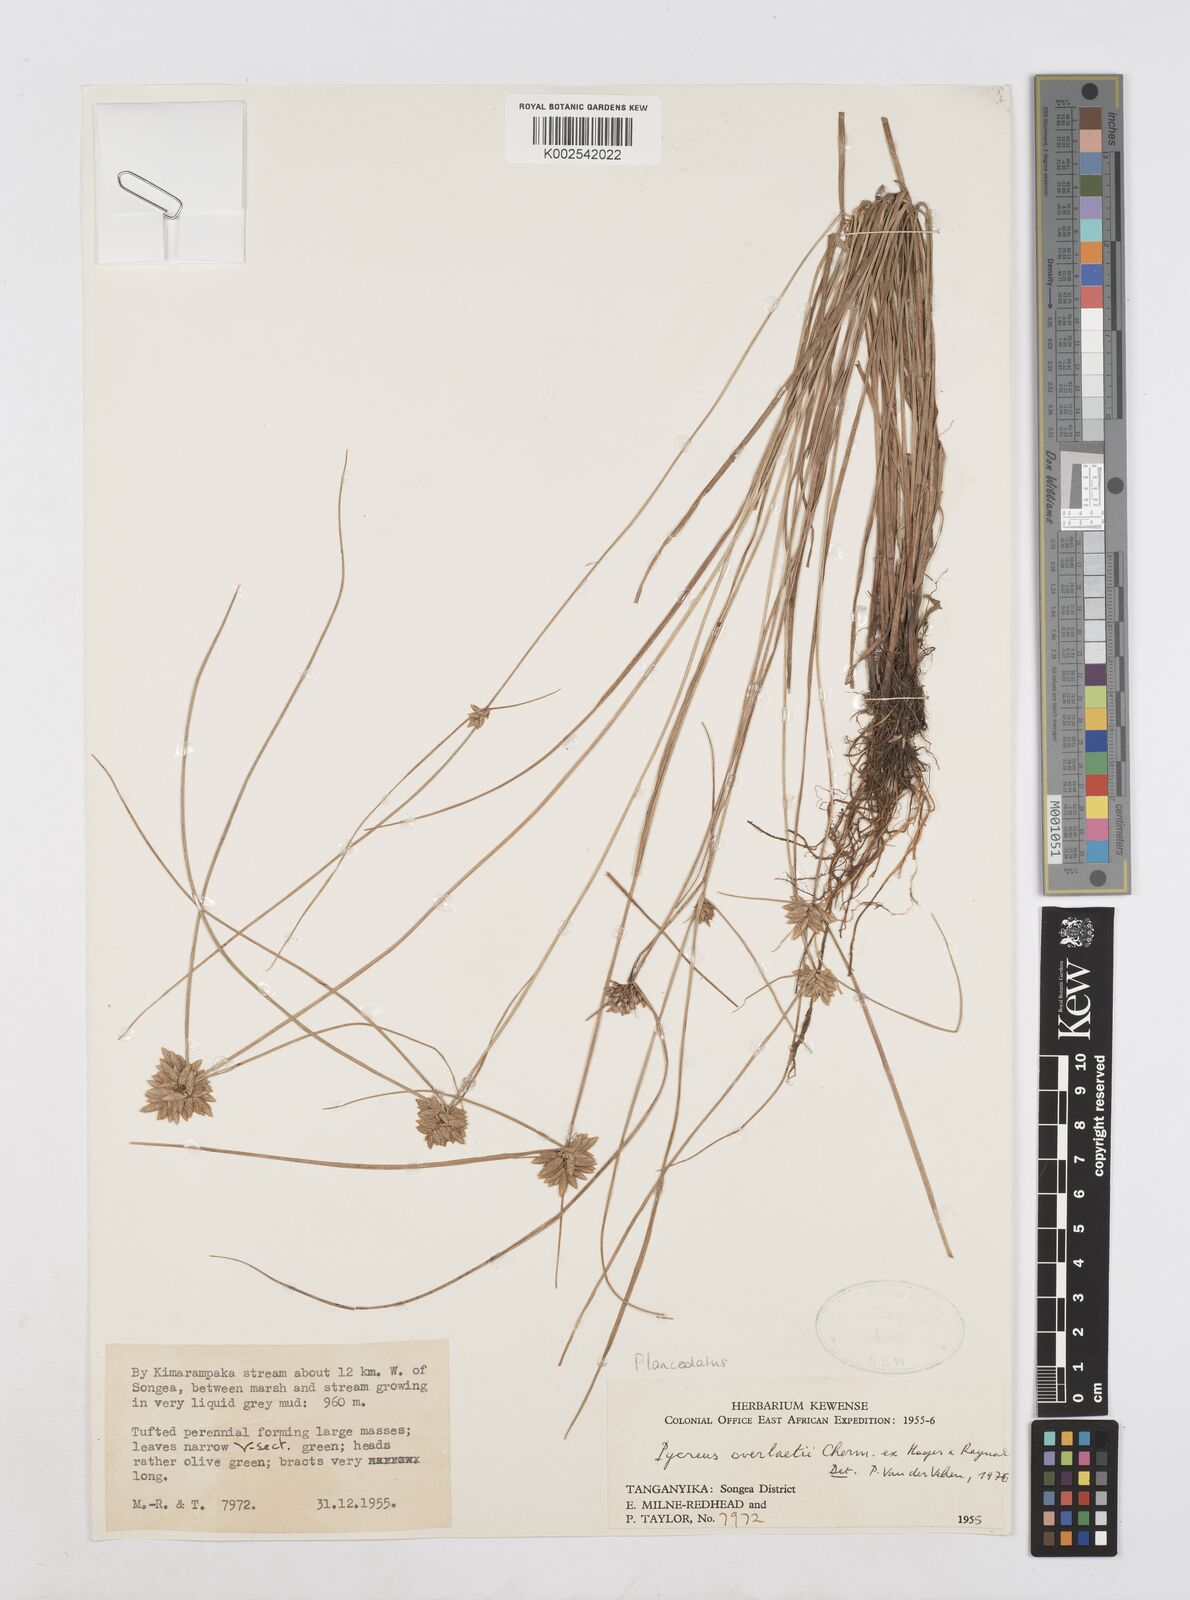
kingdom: Plantae
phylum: Tracheophyta
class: Liliopsida
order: Poales
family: Cyperaceae
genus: Cyperus
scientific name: Cyperus lanceolatus
